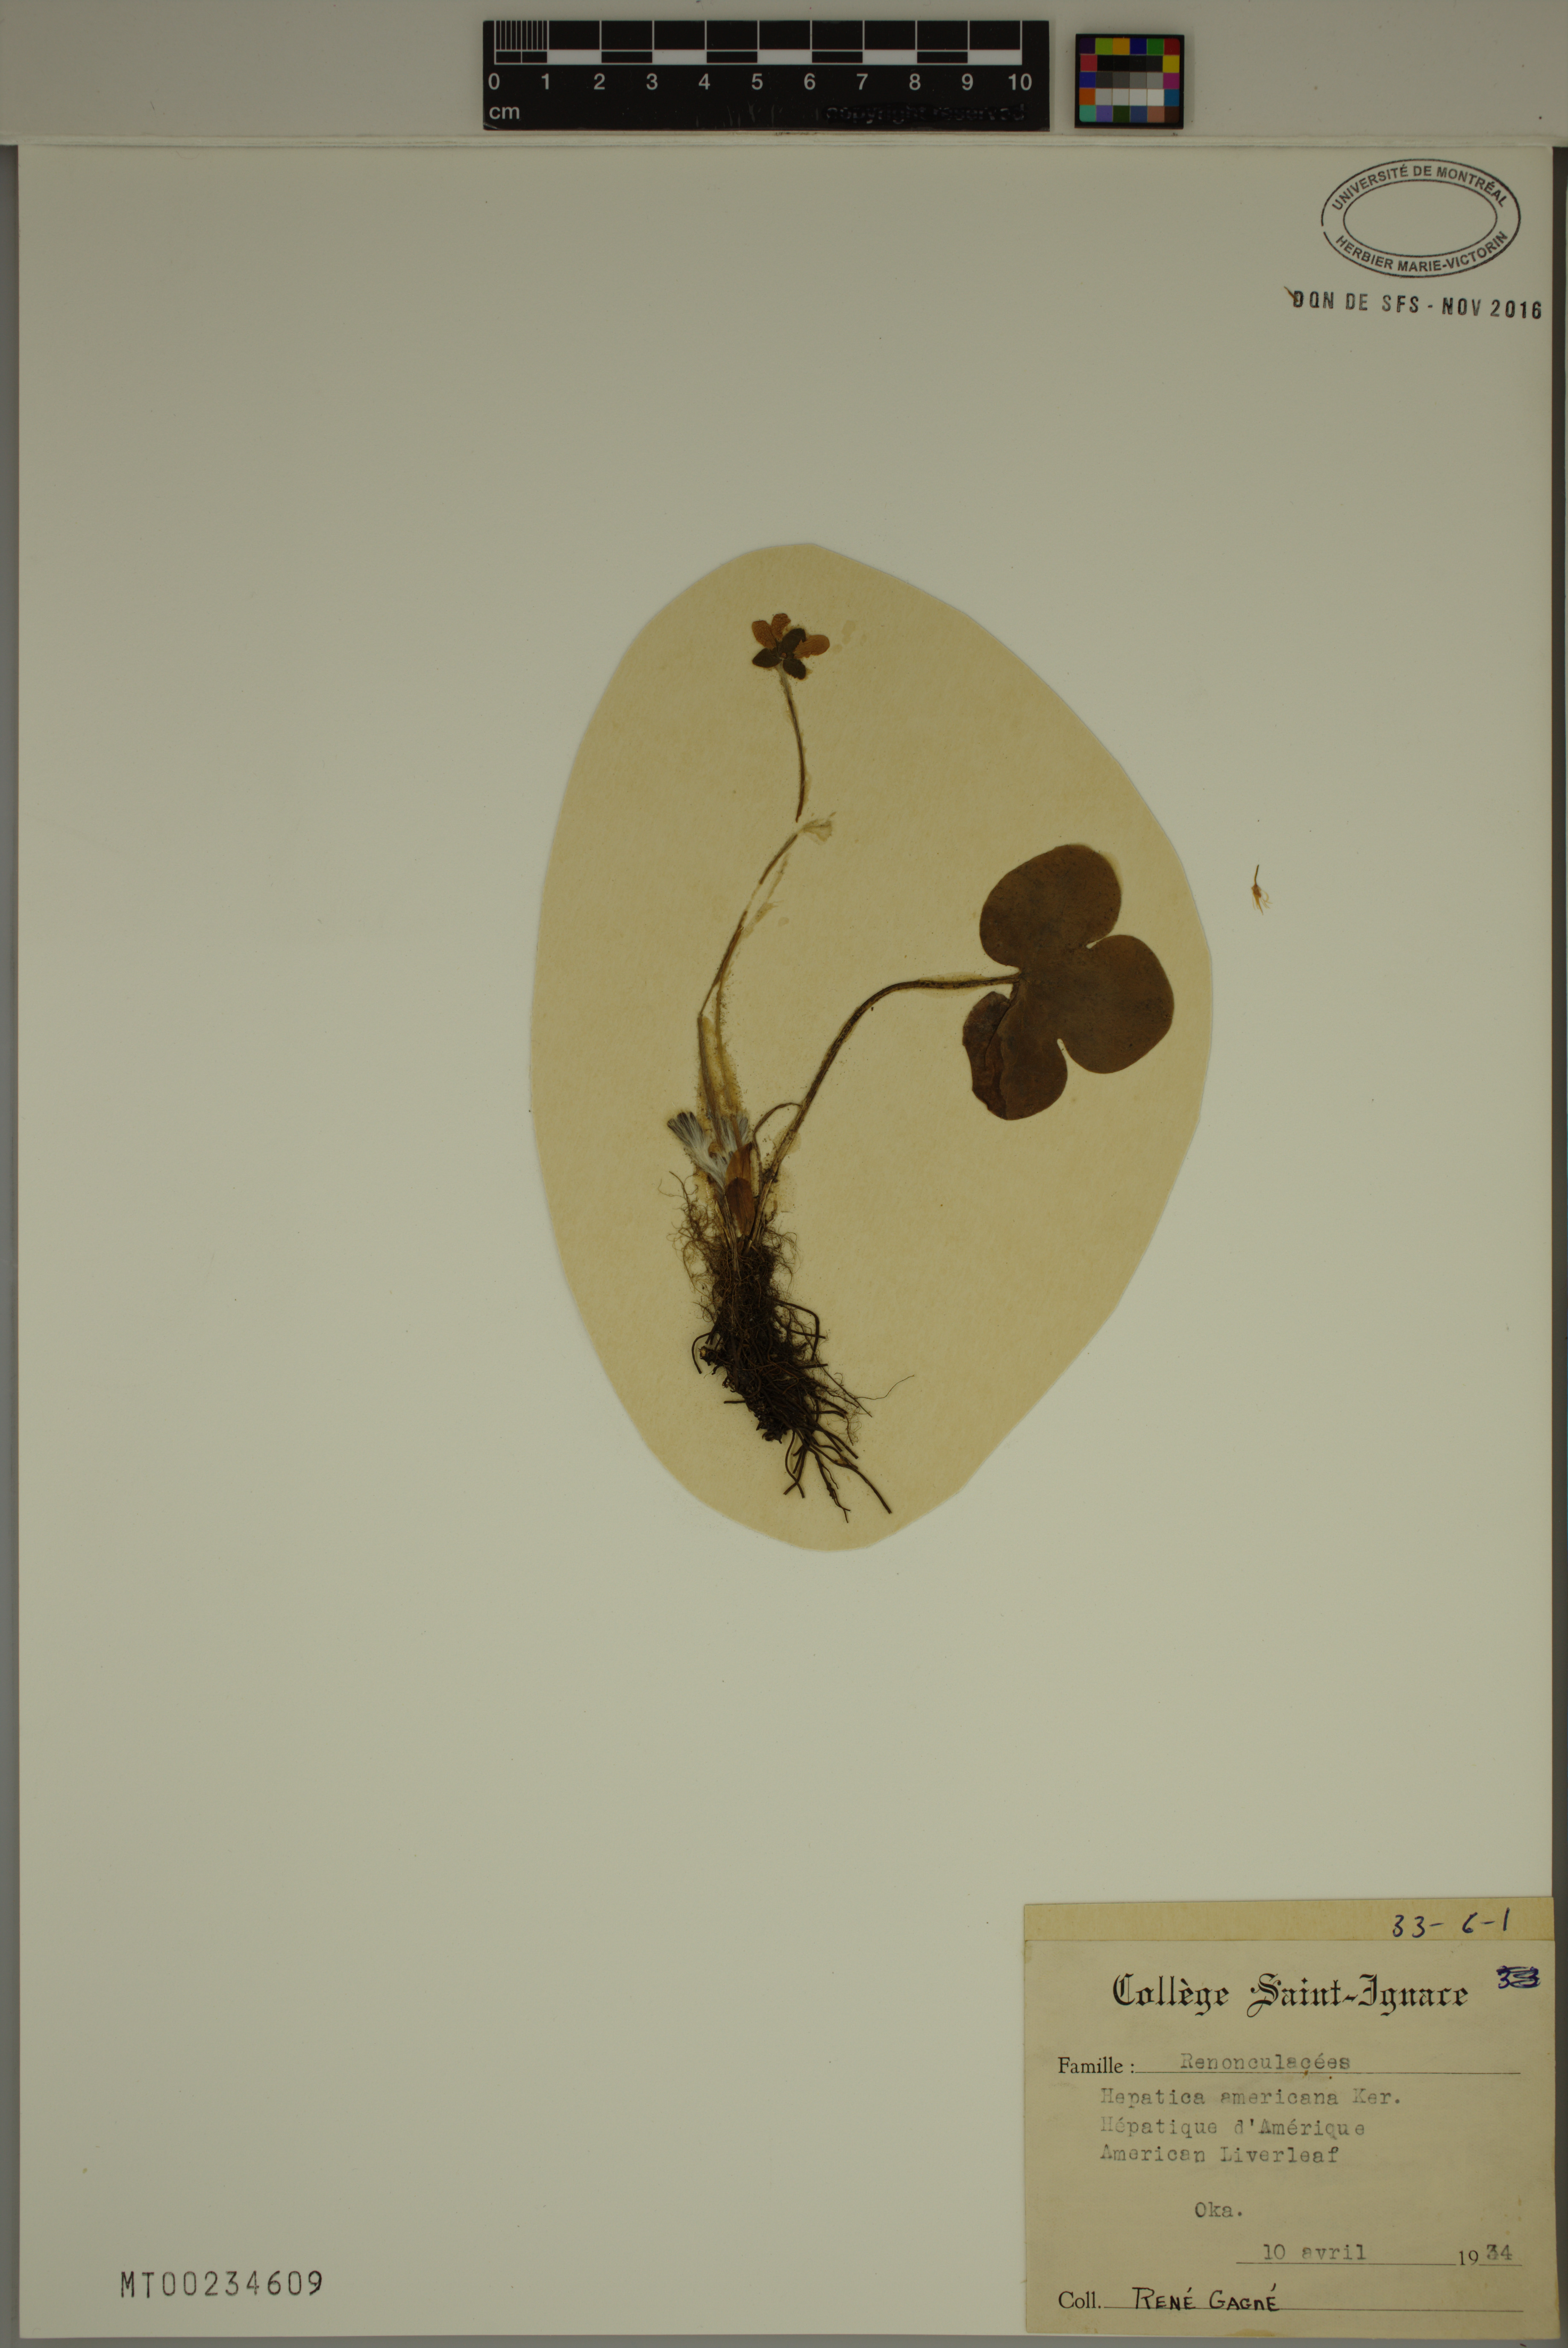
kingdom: Plantae
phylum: Tracheophyta
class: Magnoliopsida
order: Ranunculales
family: Ranunculaceae
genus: Hepatica
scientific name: Hepatica americana
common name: American hepatica
